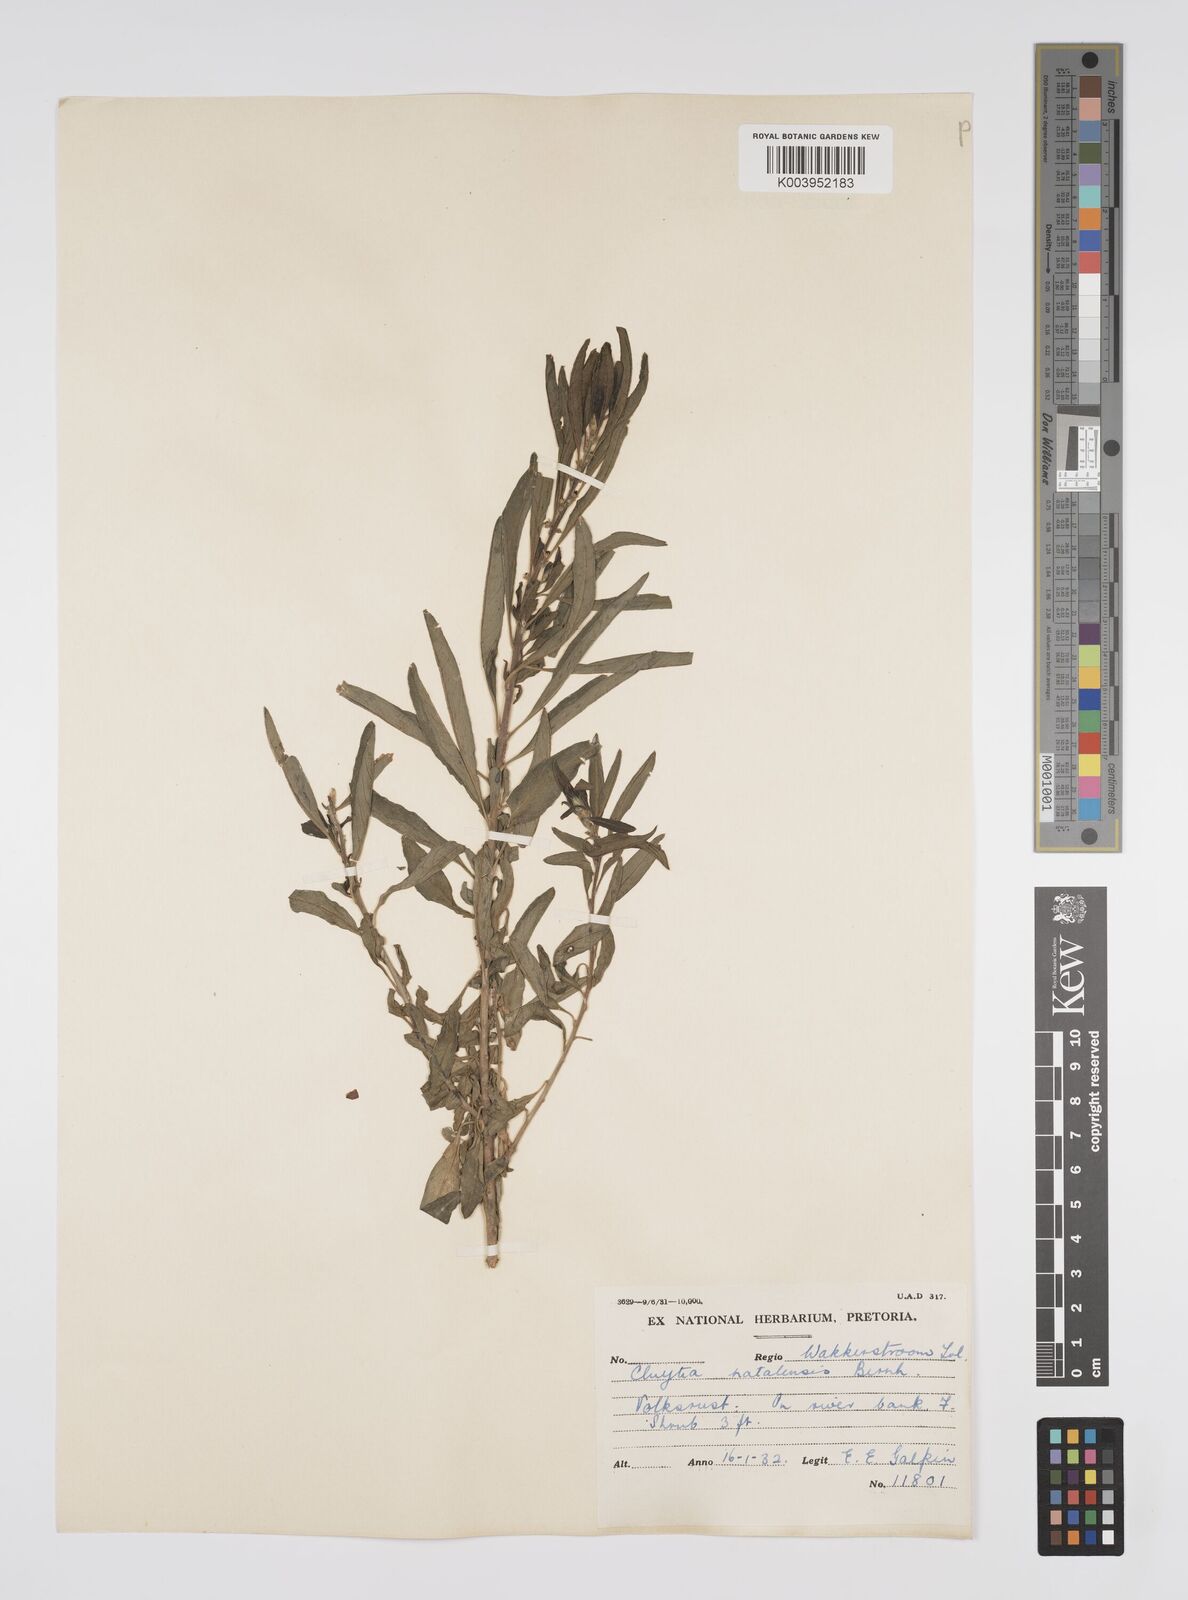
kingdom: Plantae
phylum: Tracheophyta
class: Magnoliopsida
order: Malpighiales
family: Peraceae
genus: Clutia
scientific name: Clutia natalensis
